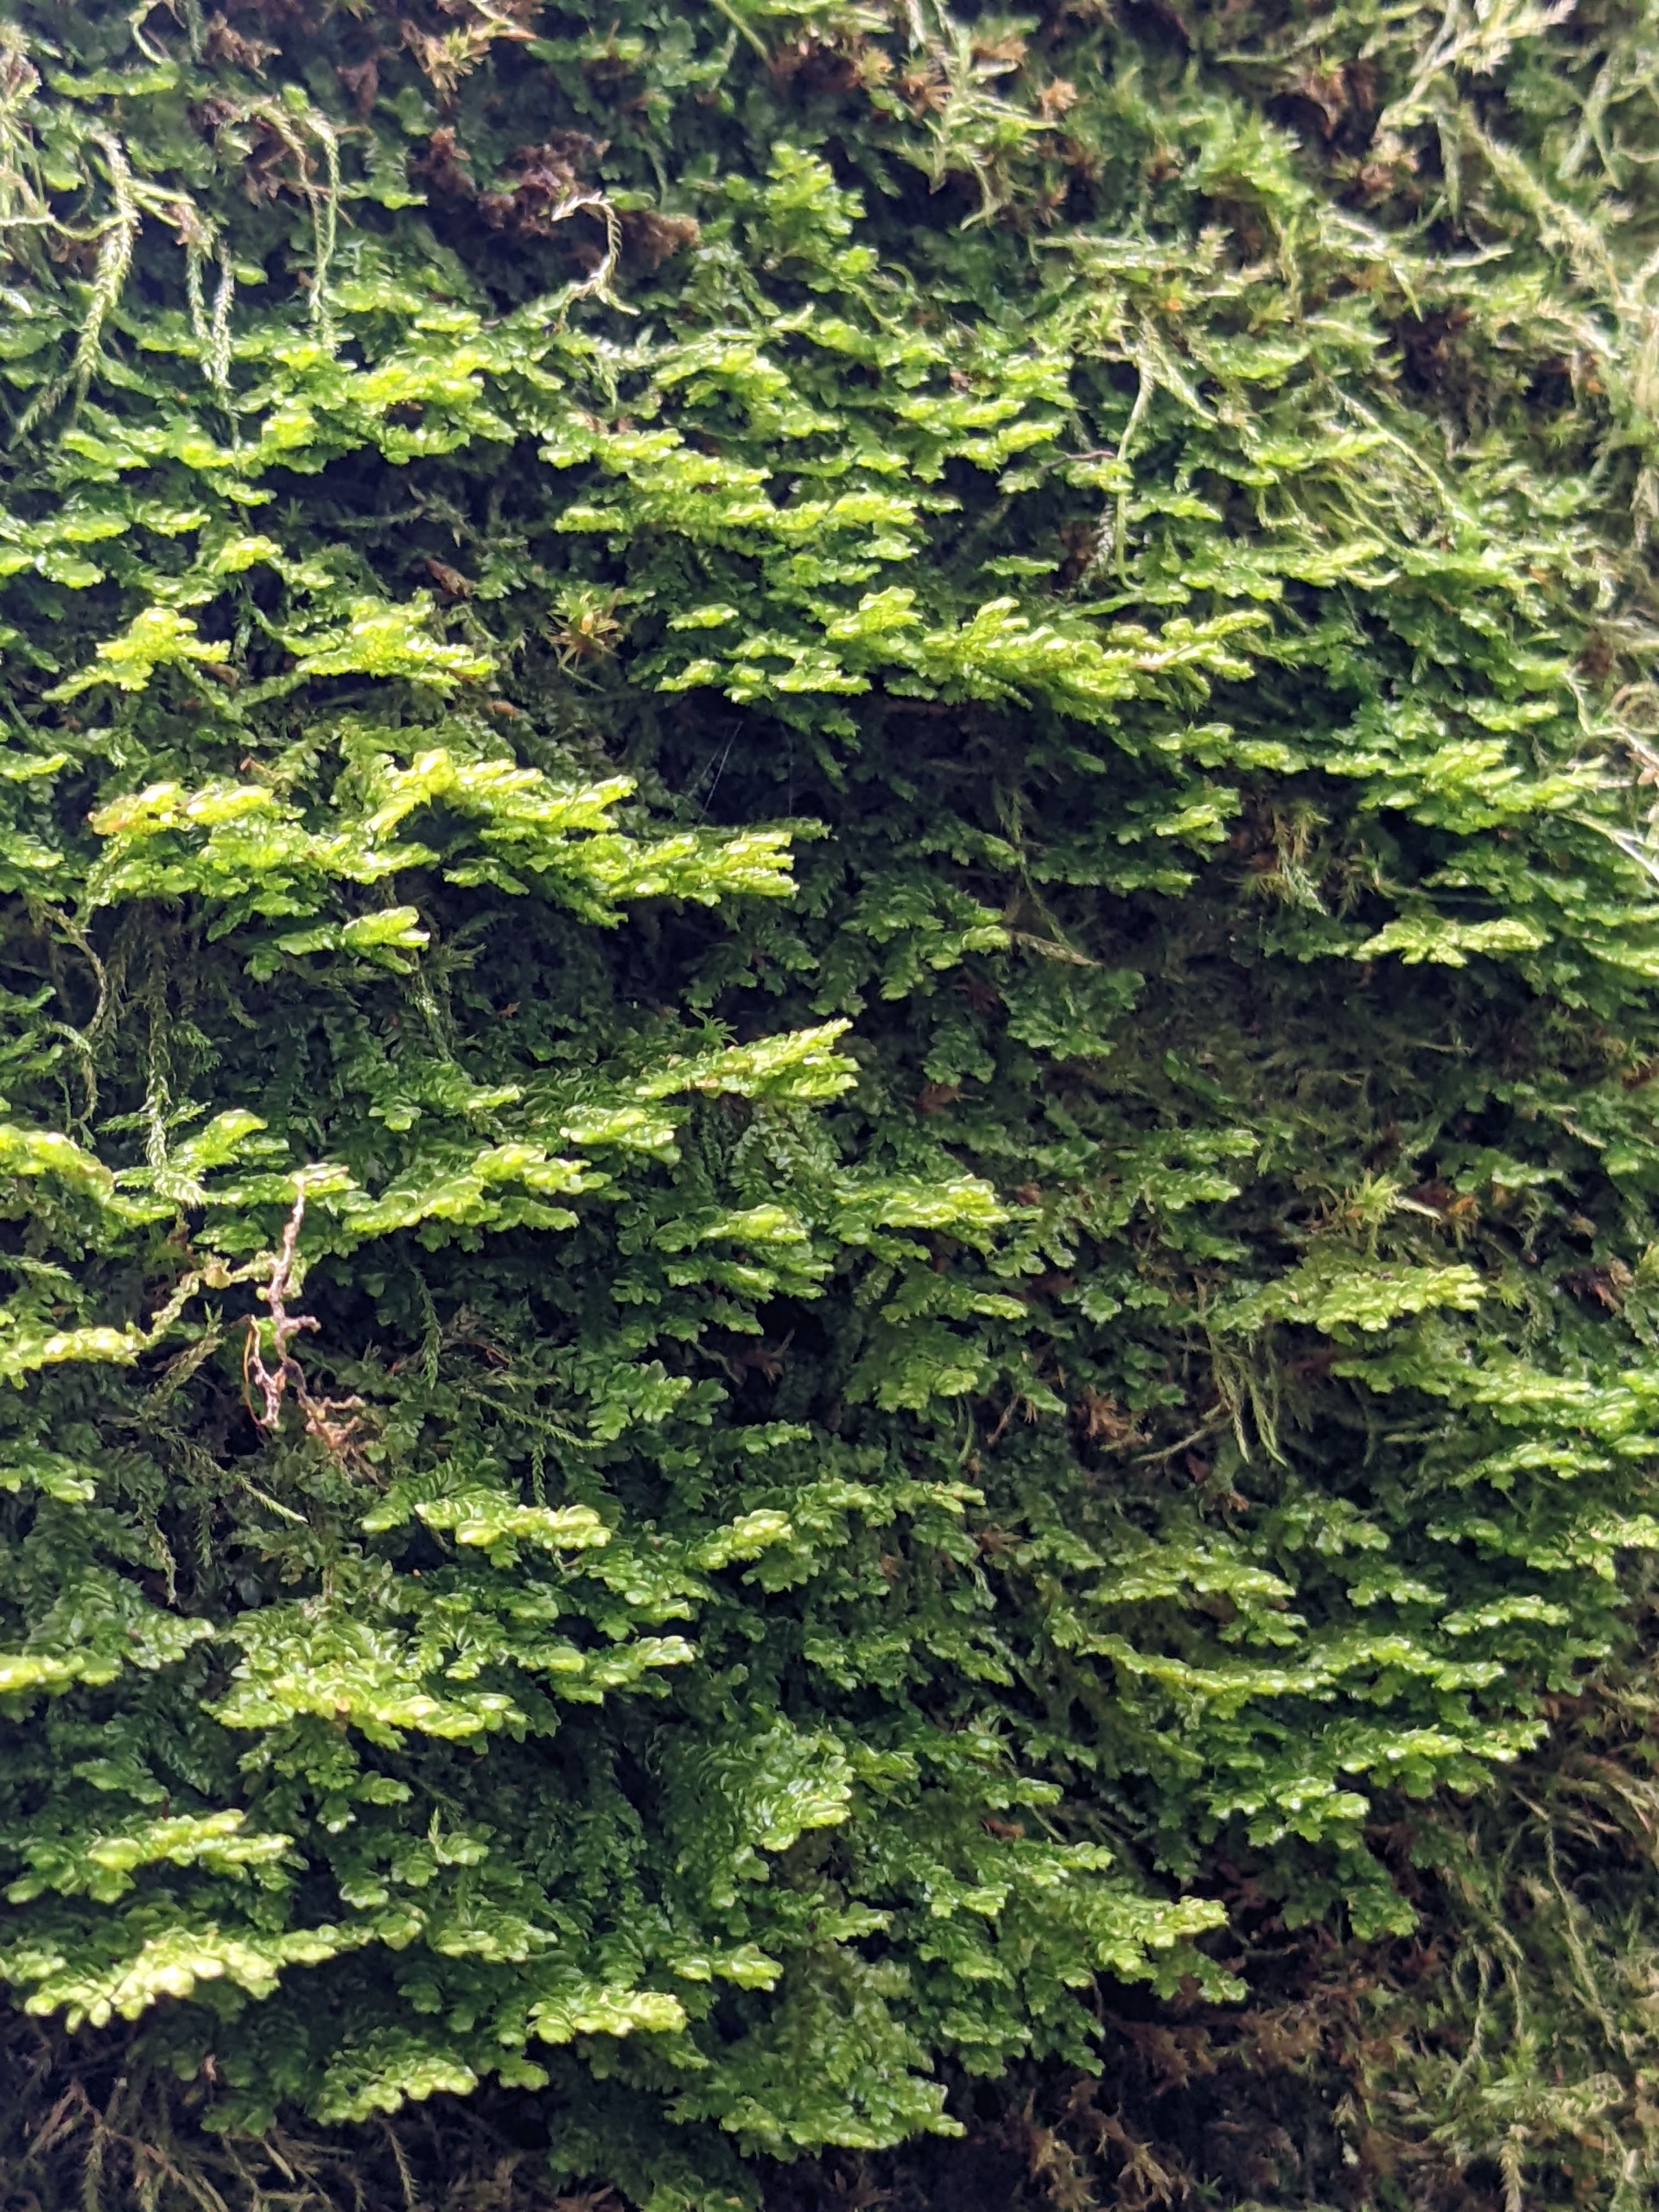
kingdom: Plantae
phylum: Marchantiophyta
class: Jungermanniopsida
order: Porellales
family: Porellaceae
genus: Porella
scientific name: Porella platyphylla
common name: Almindelig skælryg
